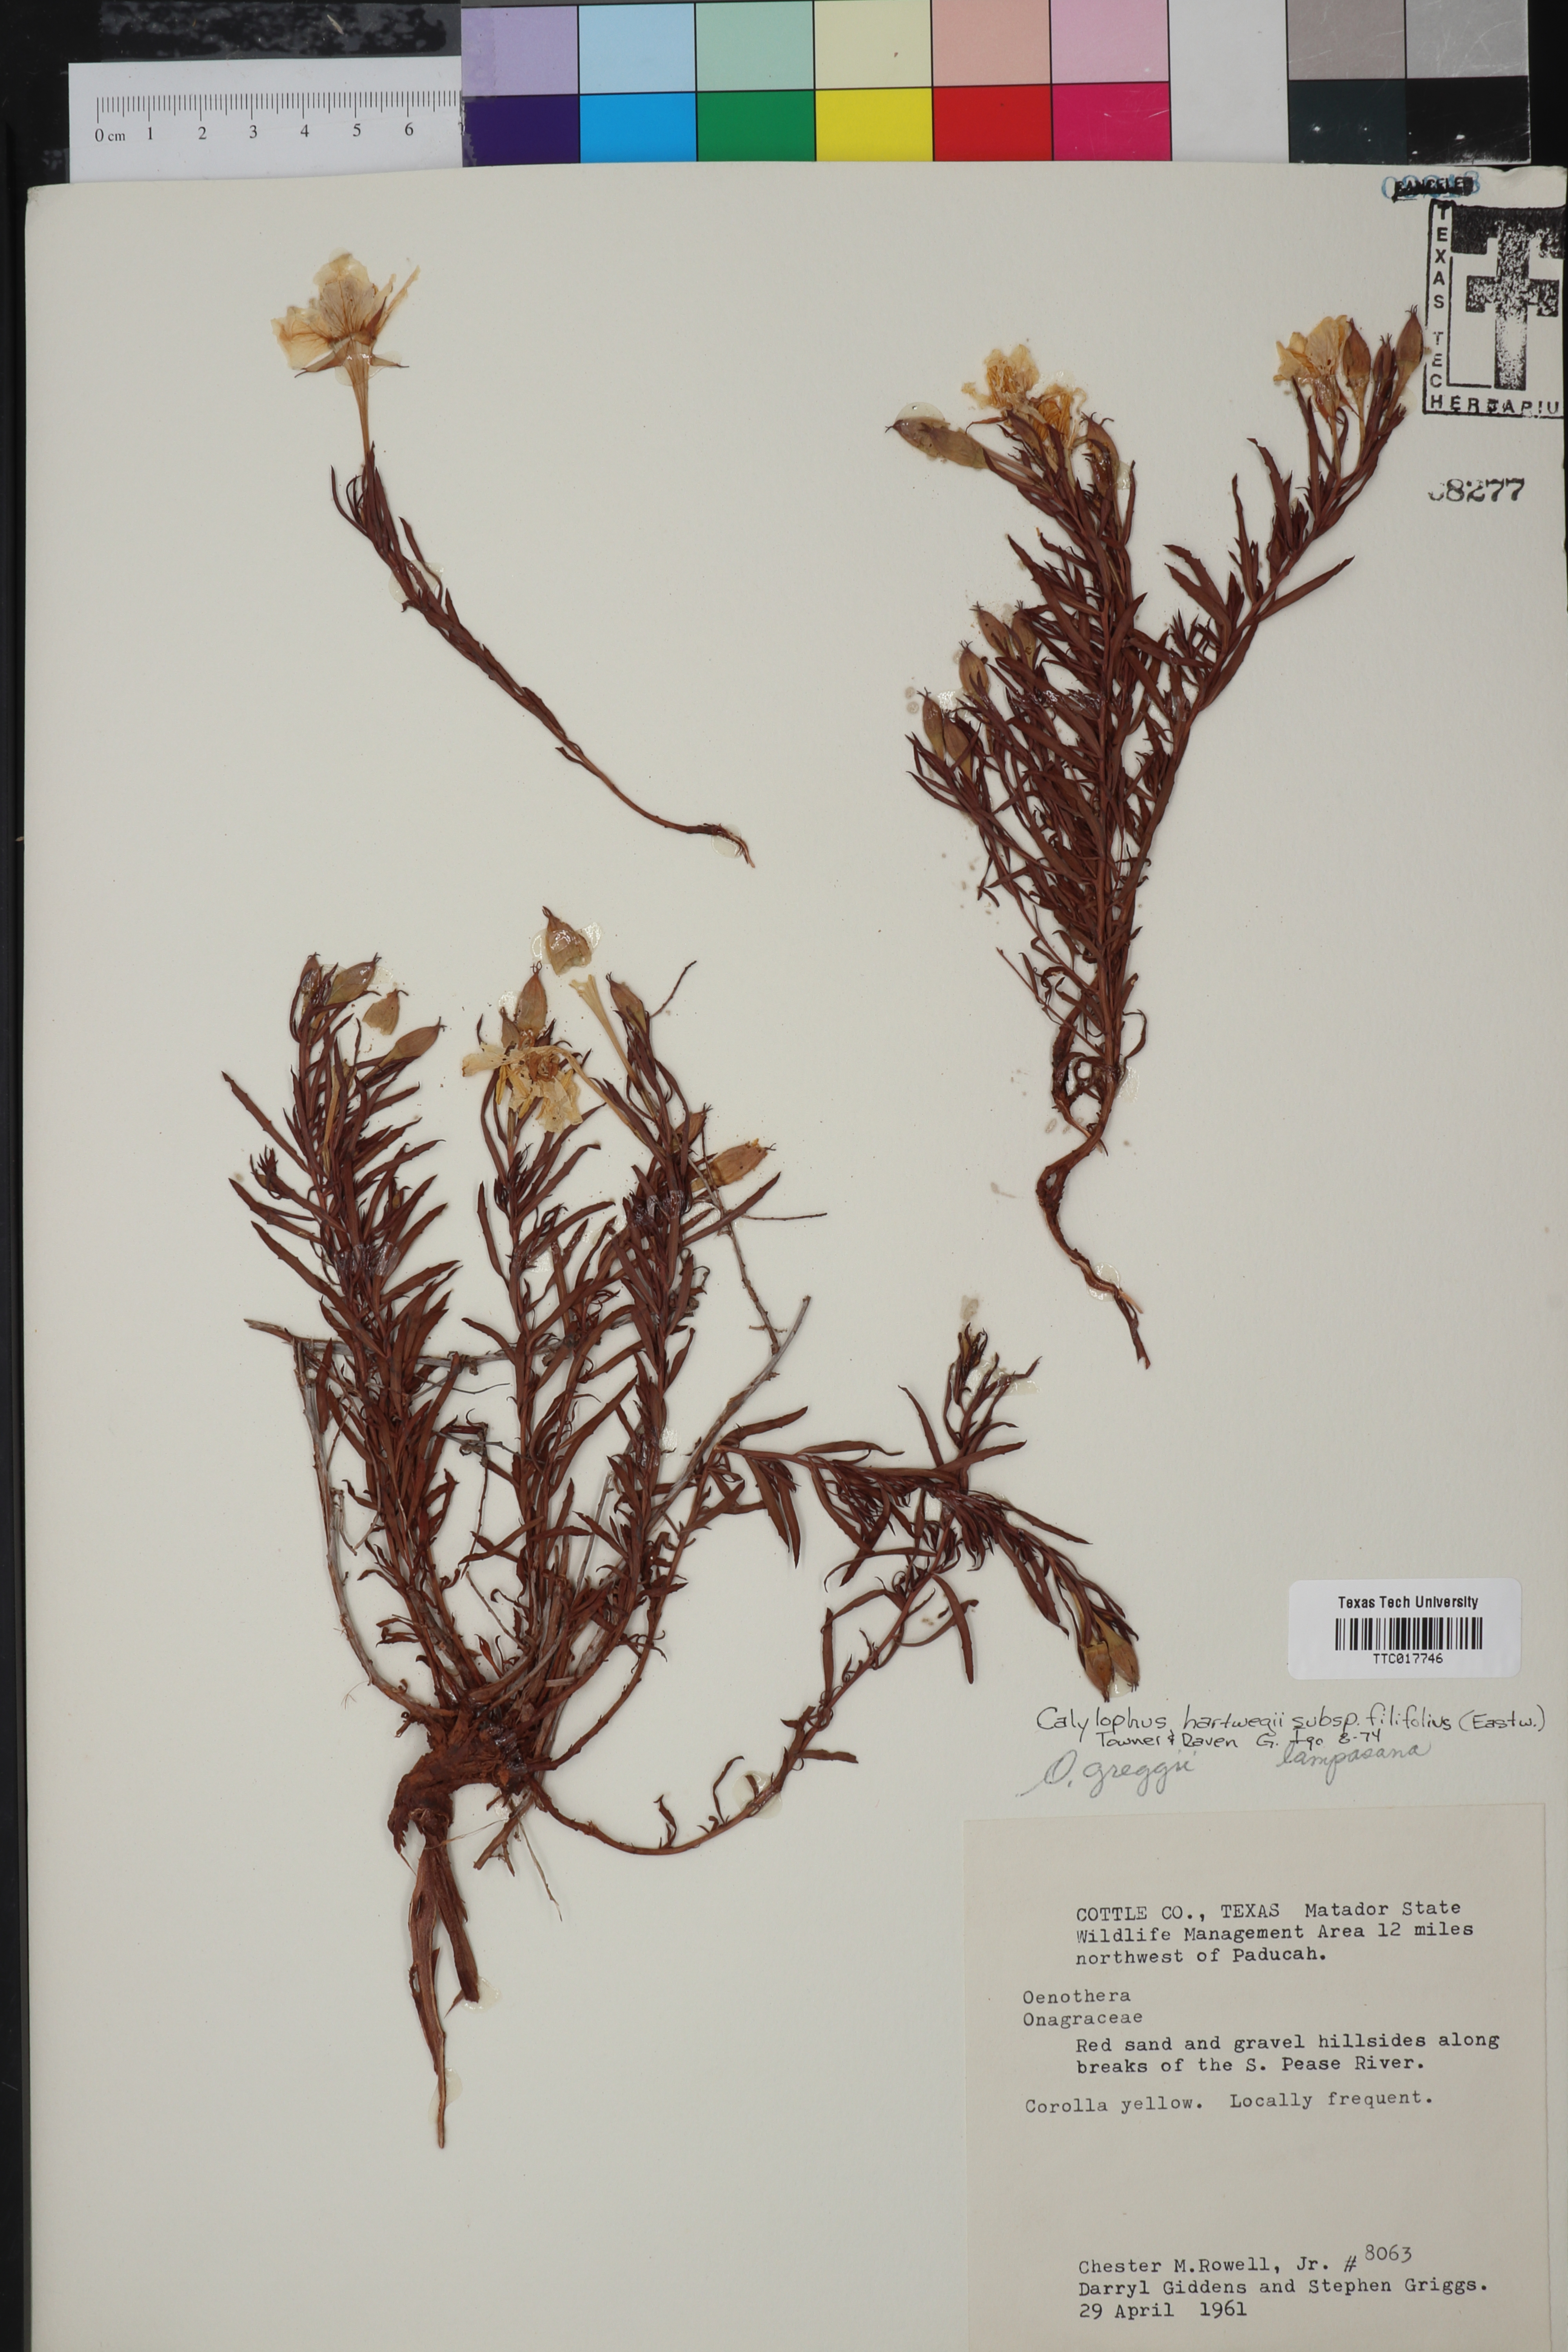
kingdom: Plantae
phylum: Tracheophyta
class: Magnoliopsida
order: Myrtales
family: Onagraceae
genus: Oenothera
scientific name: Oenothera hartwegii
